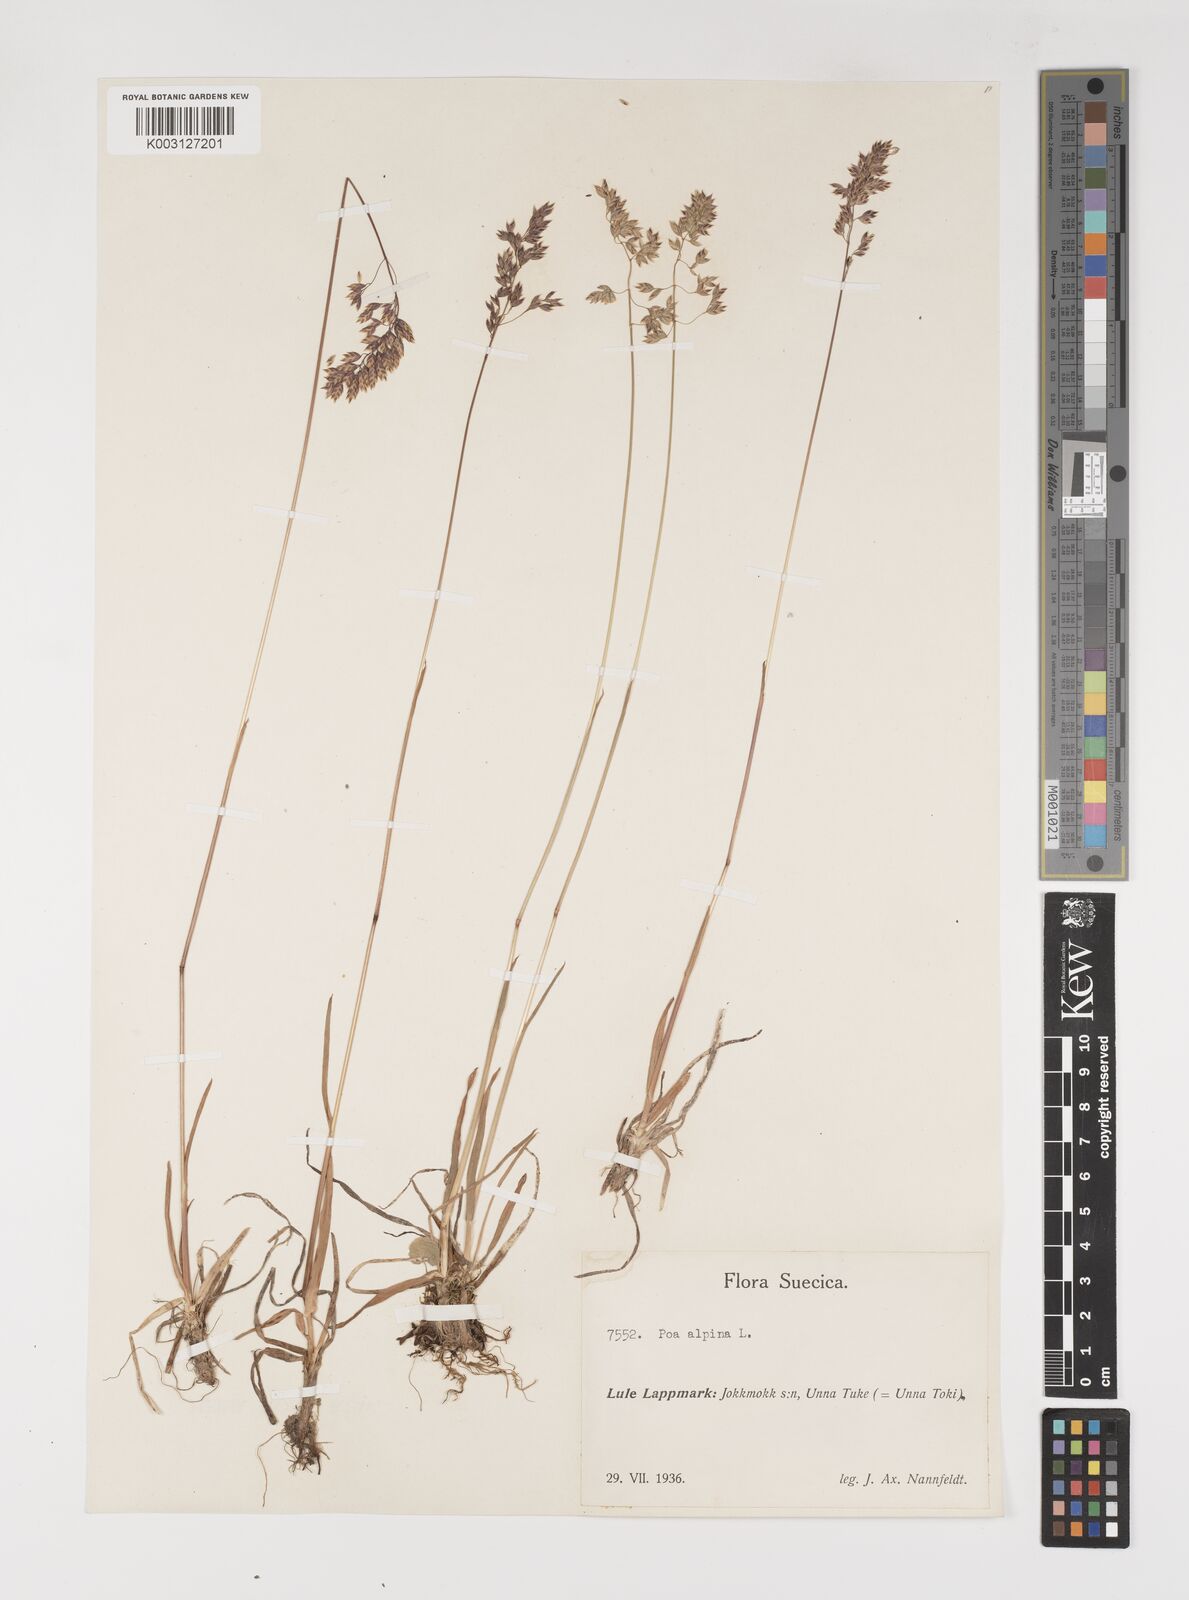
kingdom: Plantae
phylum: Tracheophyta
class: Liliopsida
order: Poales
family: Poaceae
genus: Poa
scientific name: Poa alpina
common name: Alpine bluegrass
